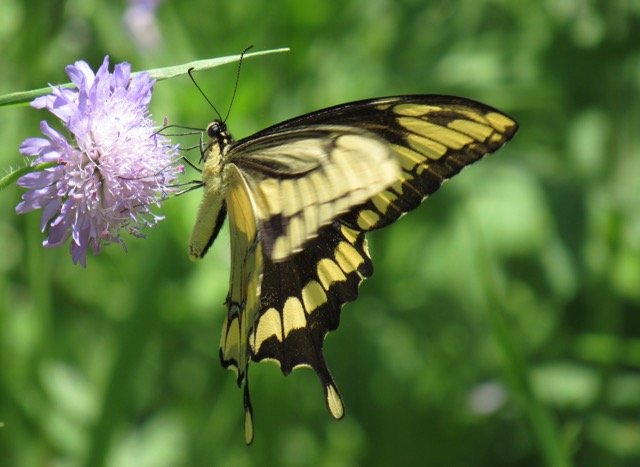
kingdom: Animalia
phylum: Arthropoda
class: Insecta
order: Lepidoptera
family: Papilionidae
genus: Papilio
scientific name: Papilio cresphontes
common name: Eastern Giant Swallowtail
